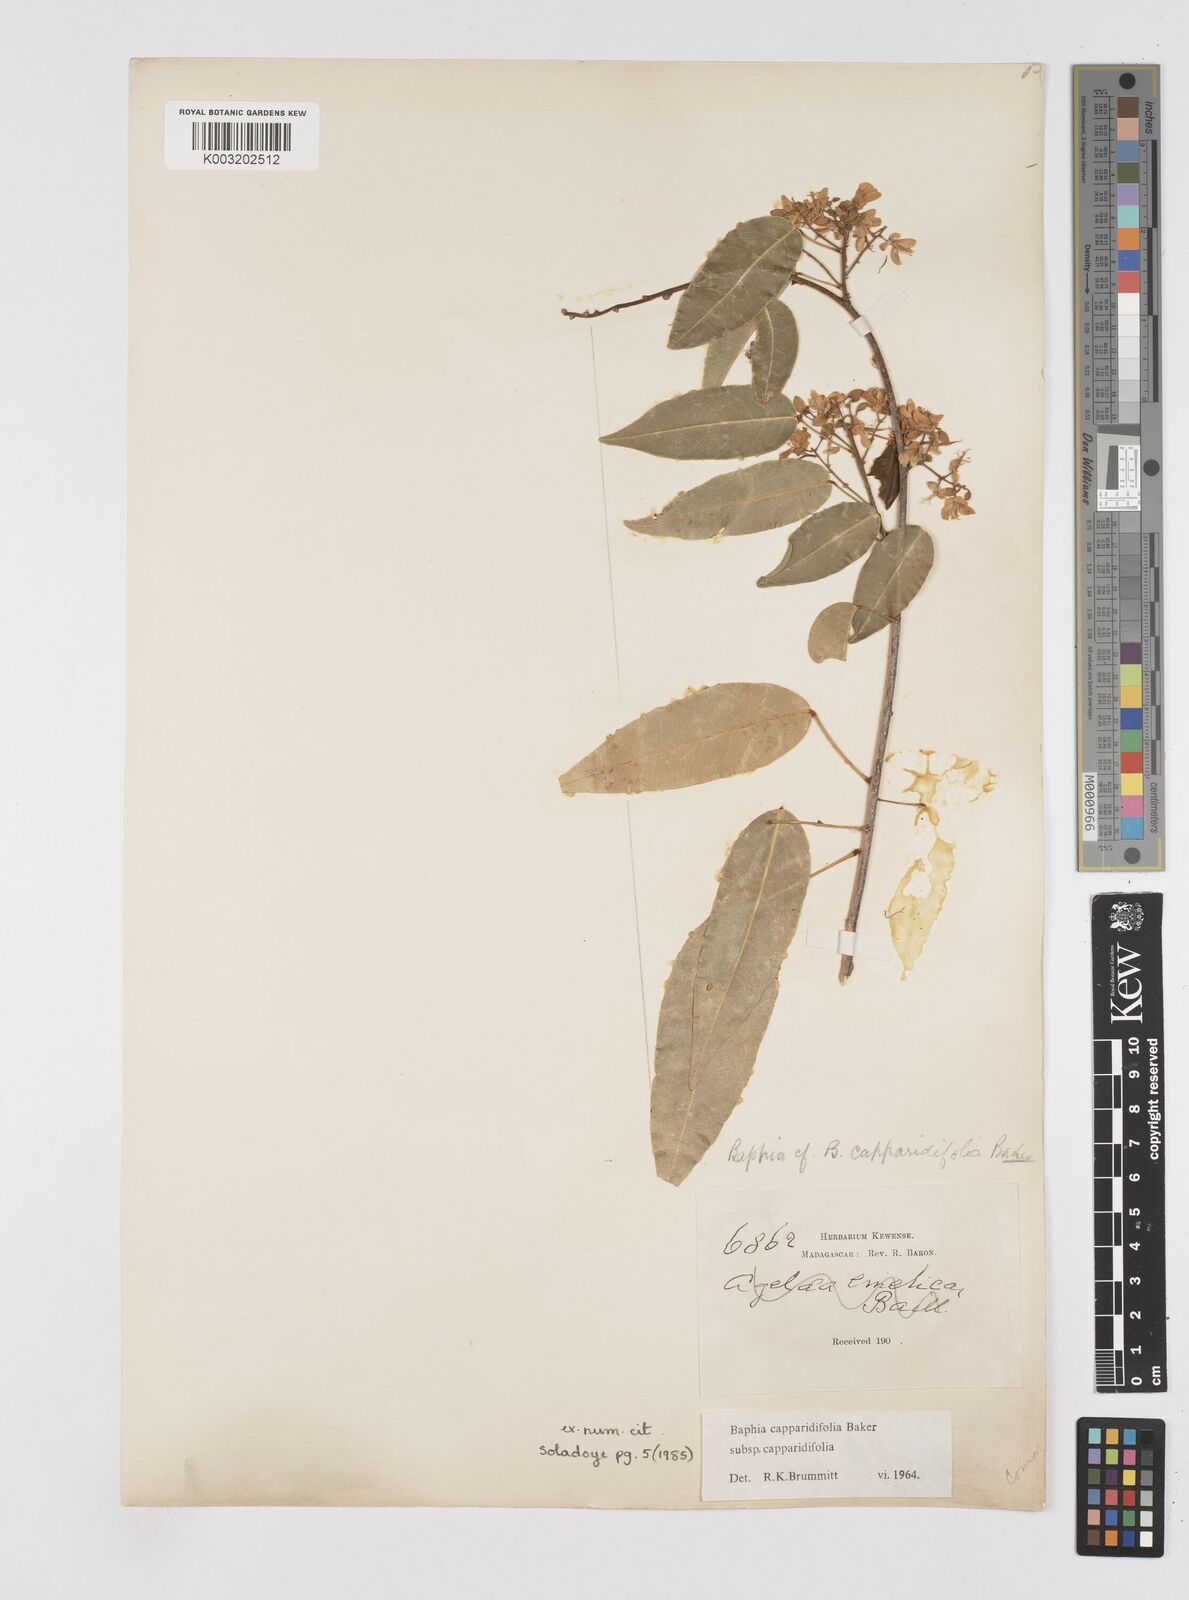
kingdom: Plantae
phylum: Tracheophyta
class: Magnoliopsida
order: Fabales
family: Fabaceae
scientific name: Fabaceae
